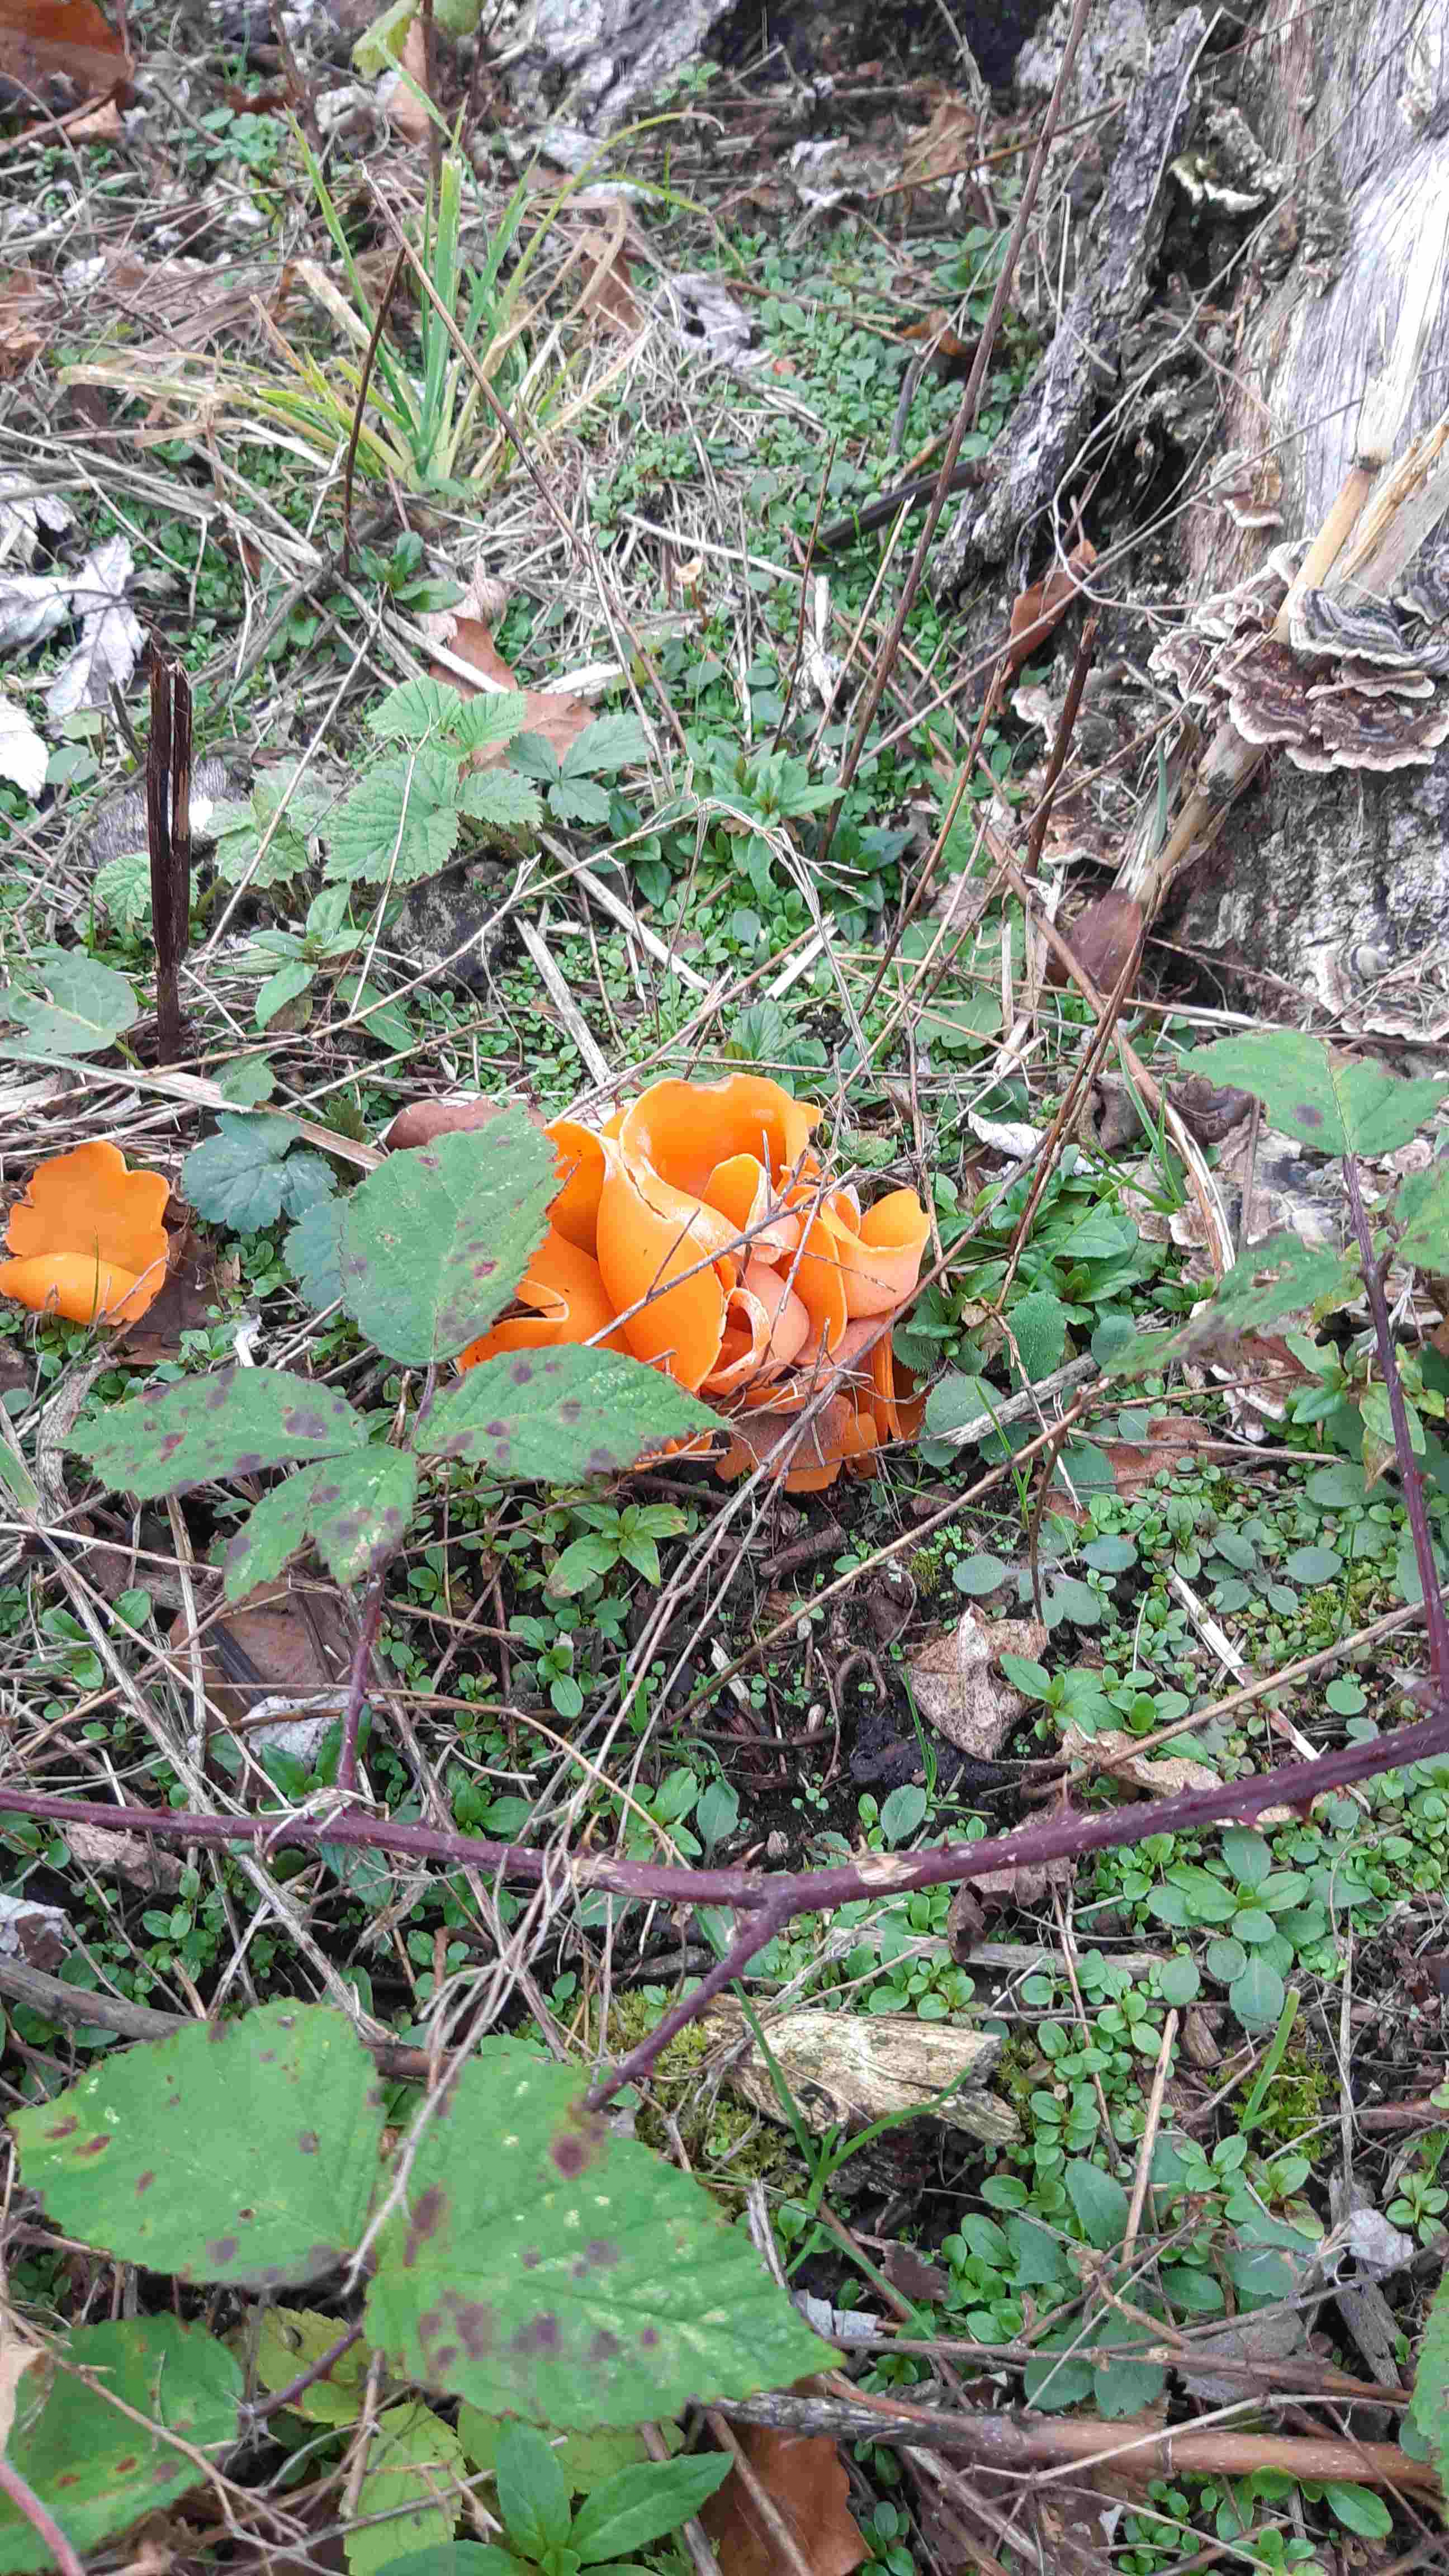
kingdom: Fungi
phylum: Ascomycota
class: Pezizomycetes
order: Pezizales
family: Pyronemataceae
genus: Aleuria
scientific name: Aleuria aurantia
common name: almindelig orangebæger
